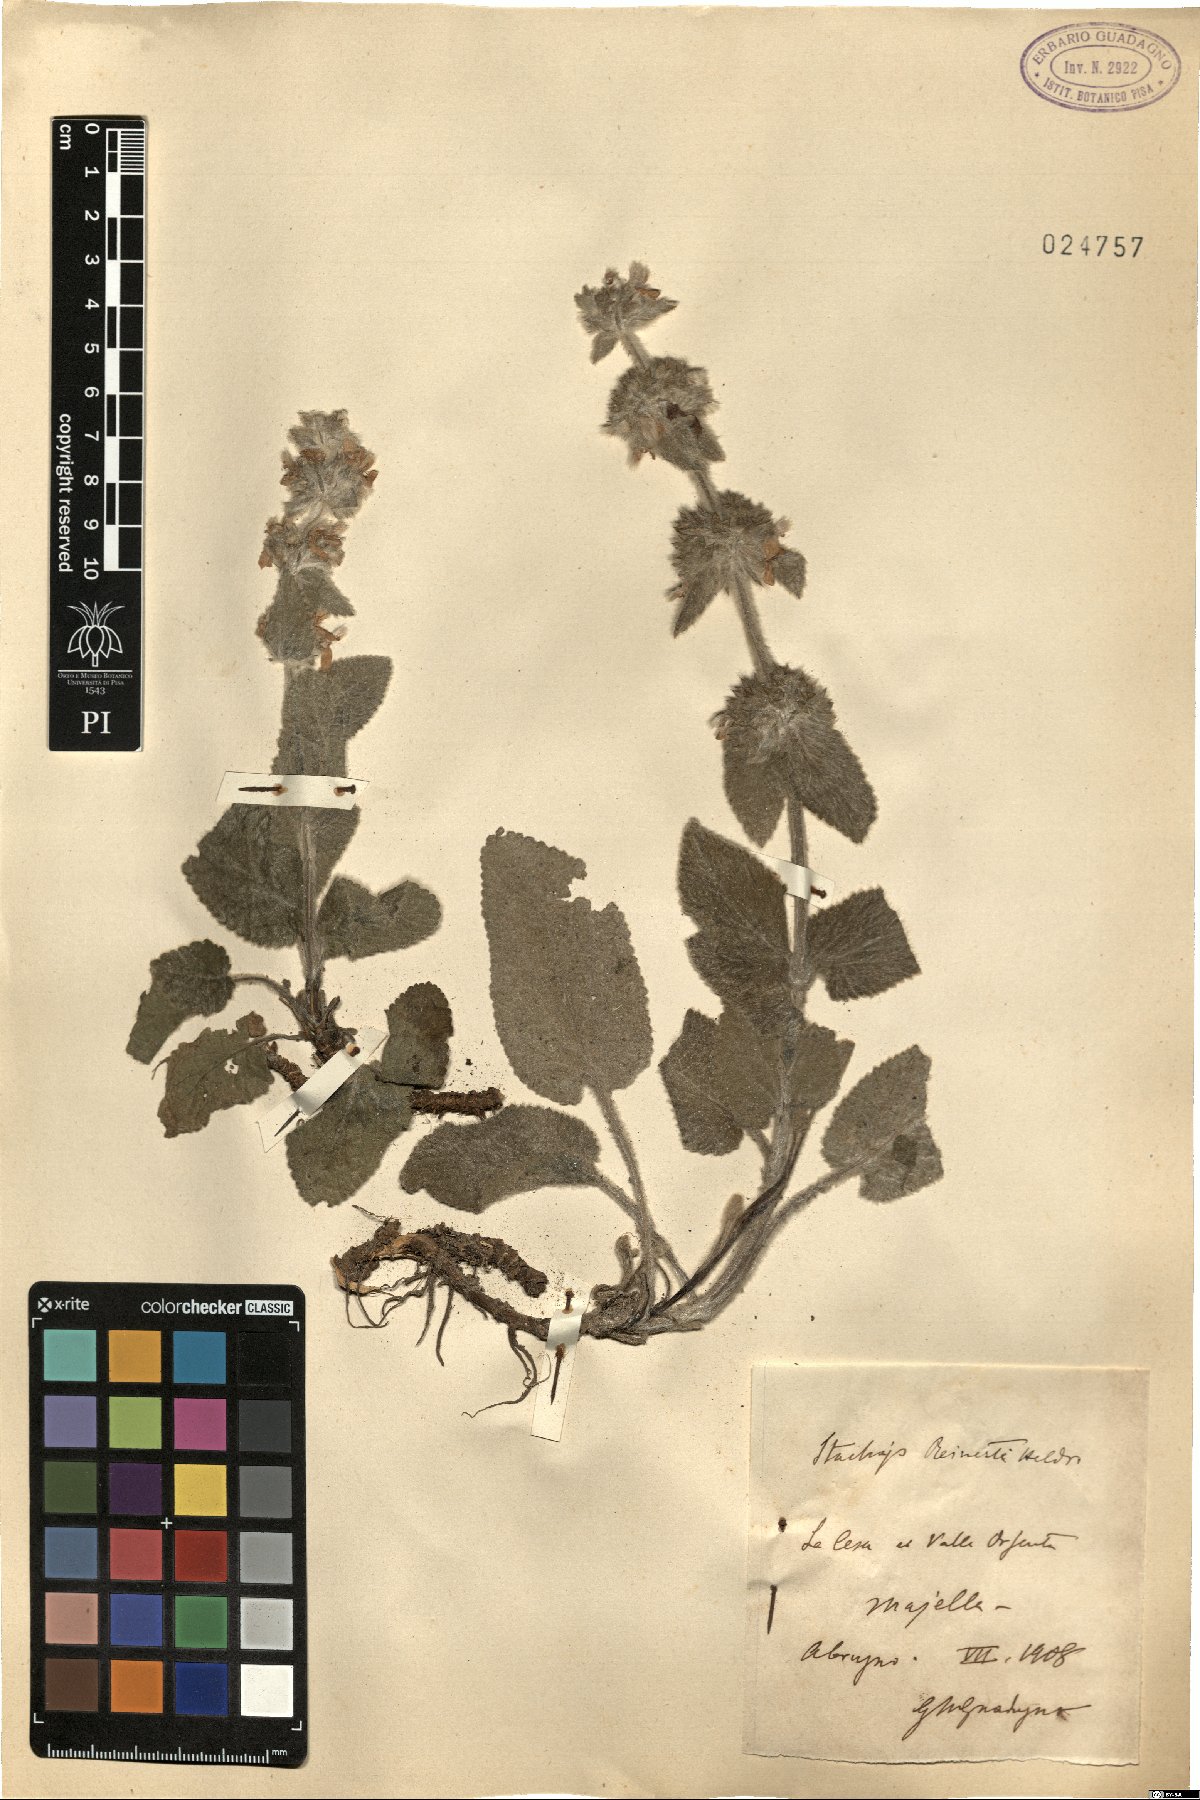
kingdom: Plantae
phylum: Tracheophyta
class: Magnoliopsida
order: Lamiales
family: Lamiaceae
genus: Stachys
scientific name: Stachys tymphaea
